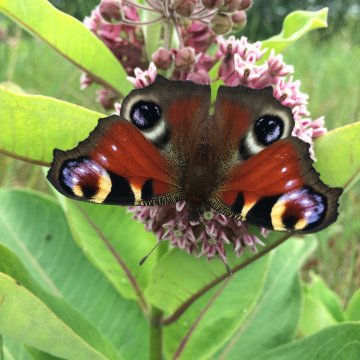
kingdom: Animalia
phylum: Arthropoda
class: Insecta
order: Lepidoptera
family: Nymphalidae
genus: Aglais
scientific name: Aglais io
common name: European Peacock
